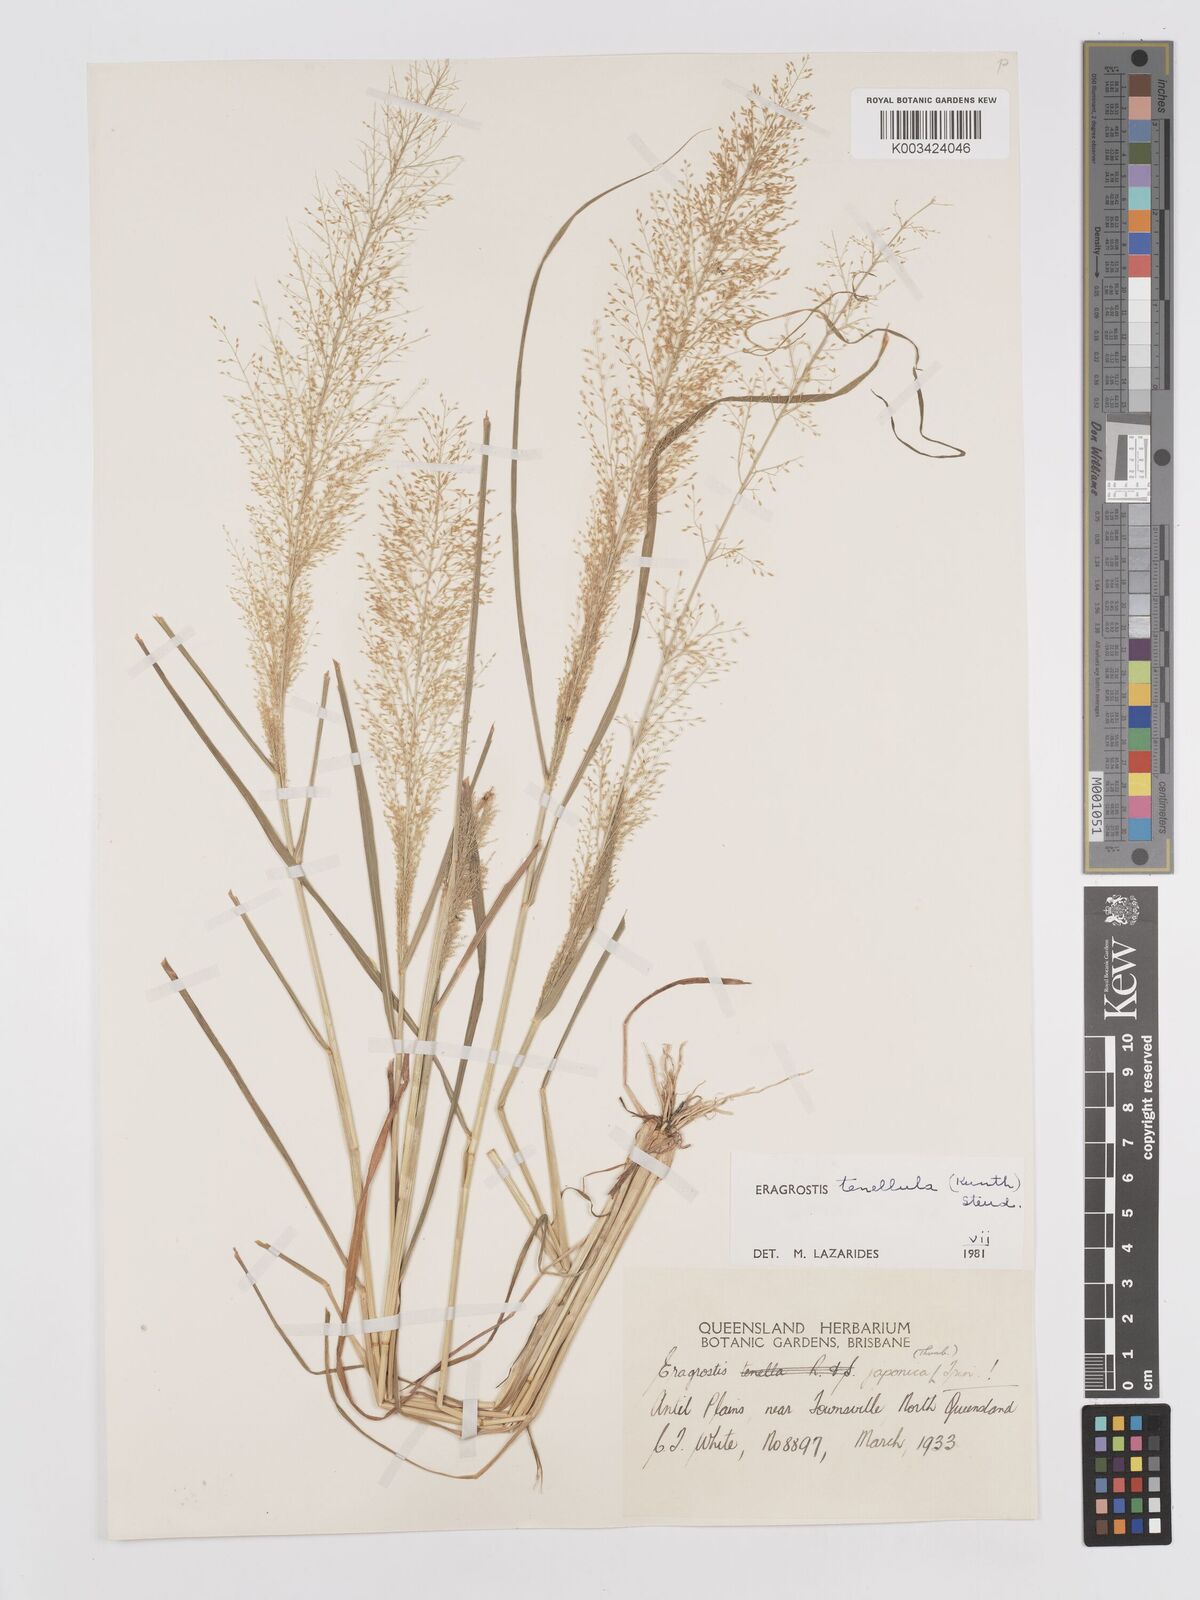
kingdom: Plantae
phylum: Tracheophyta
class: Liliopsida
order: Poales
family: Poaceae
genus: Eragrostis
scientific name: Eragrostis tenellula
